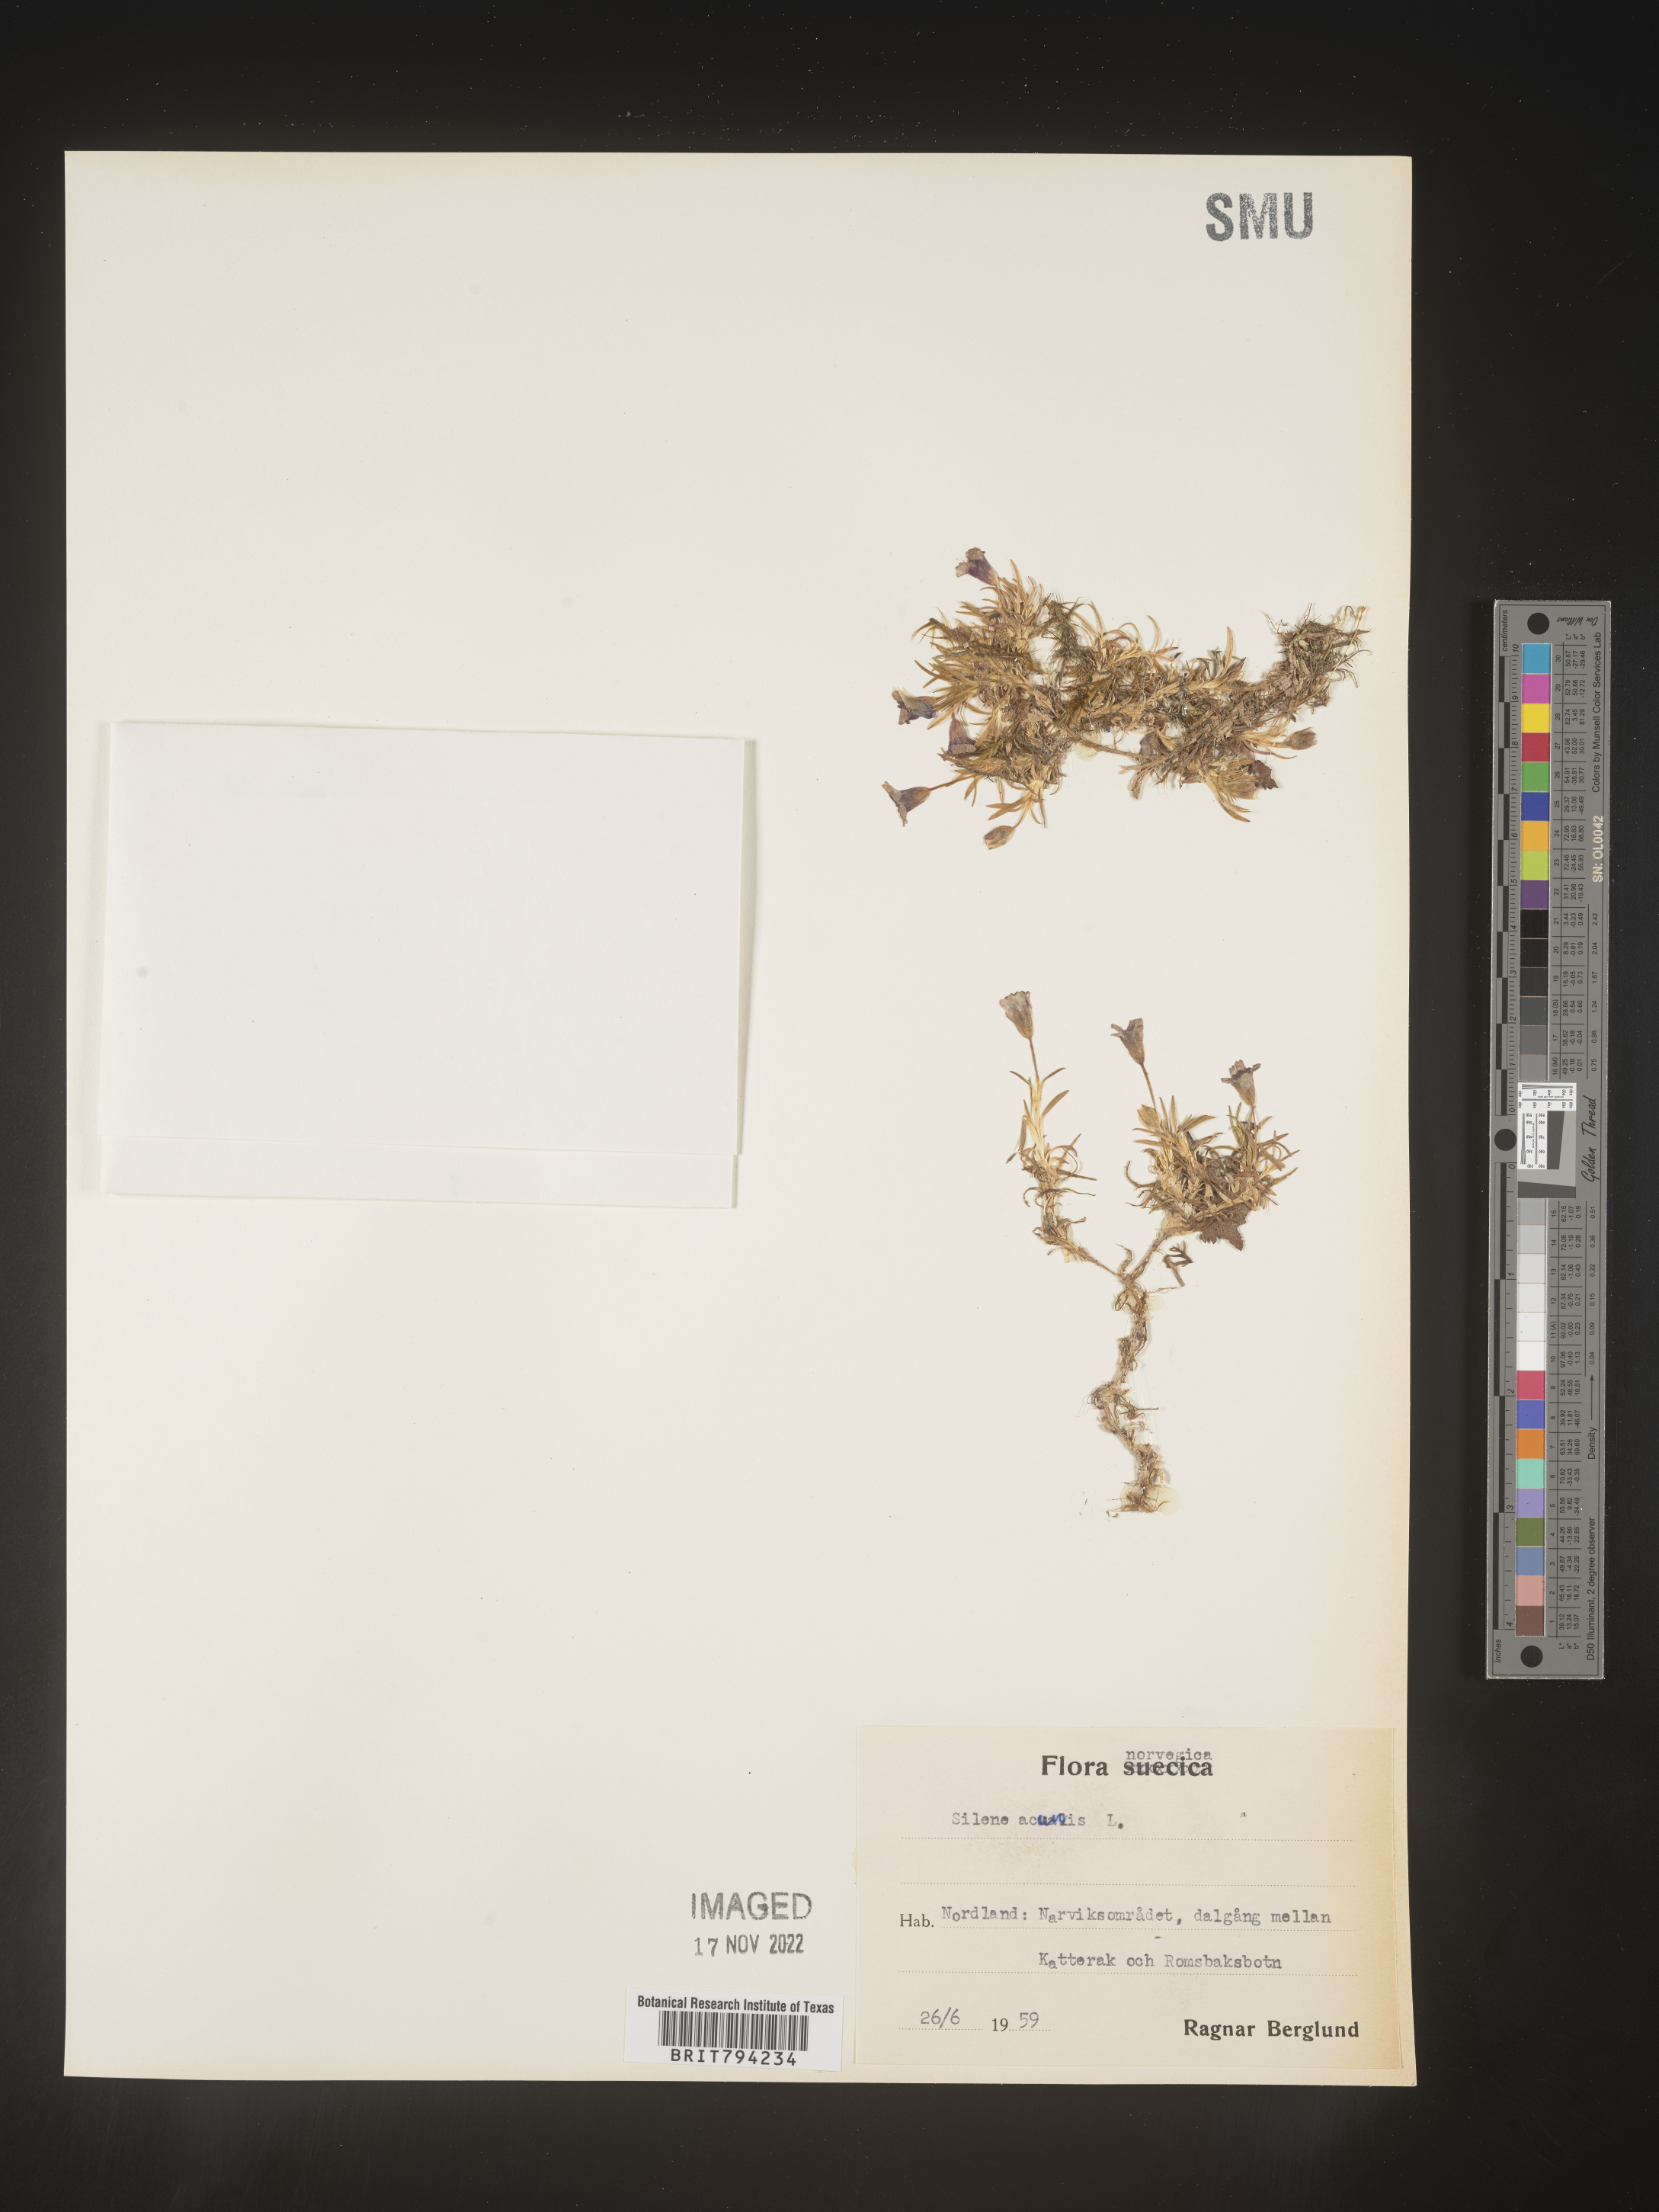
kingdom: Plantae
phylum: Tracheophyta
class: Magnoliopsida
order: Caryophyllales
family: Caryophyllaceae
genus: Silene
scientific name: Silene acaulis
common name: Moss campion
